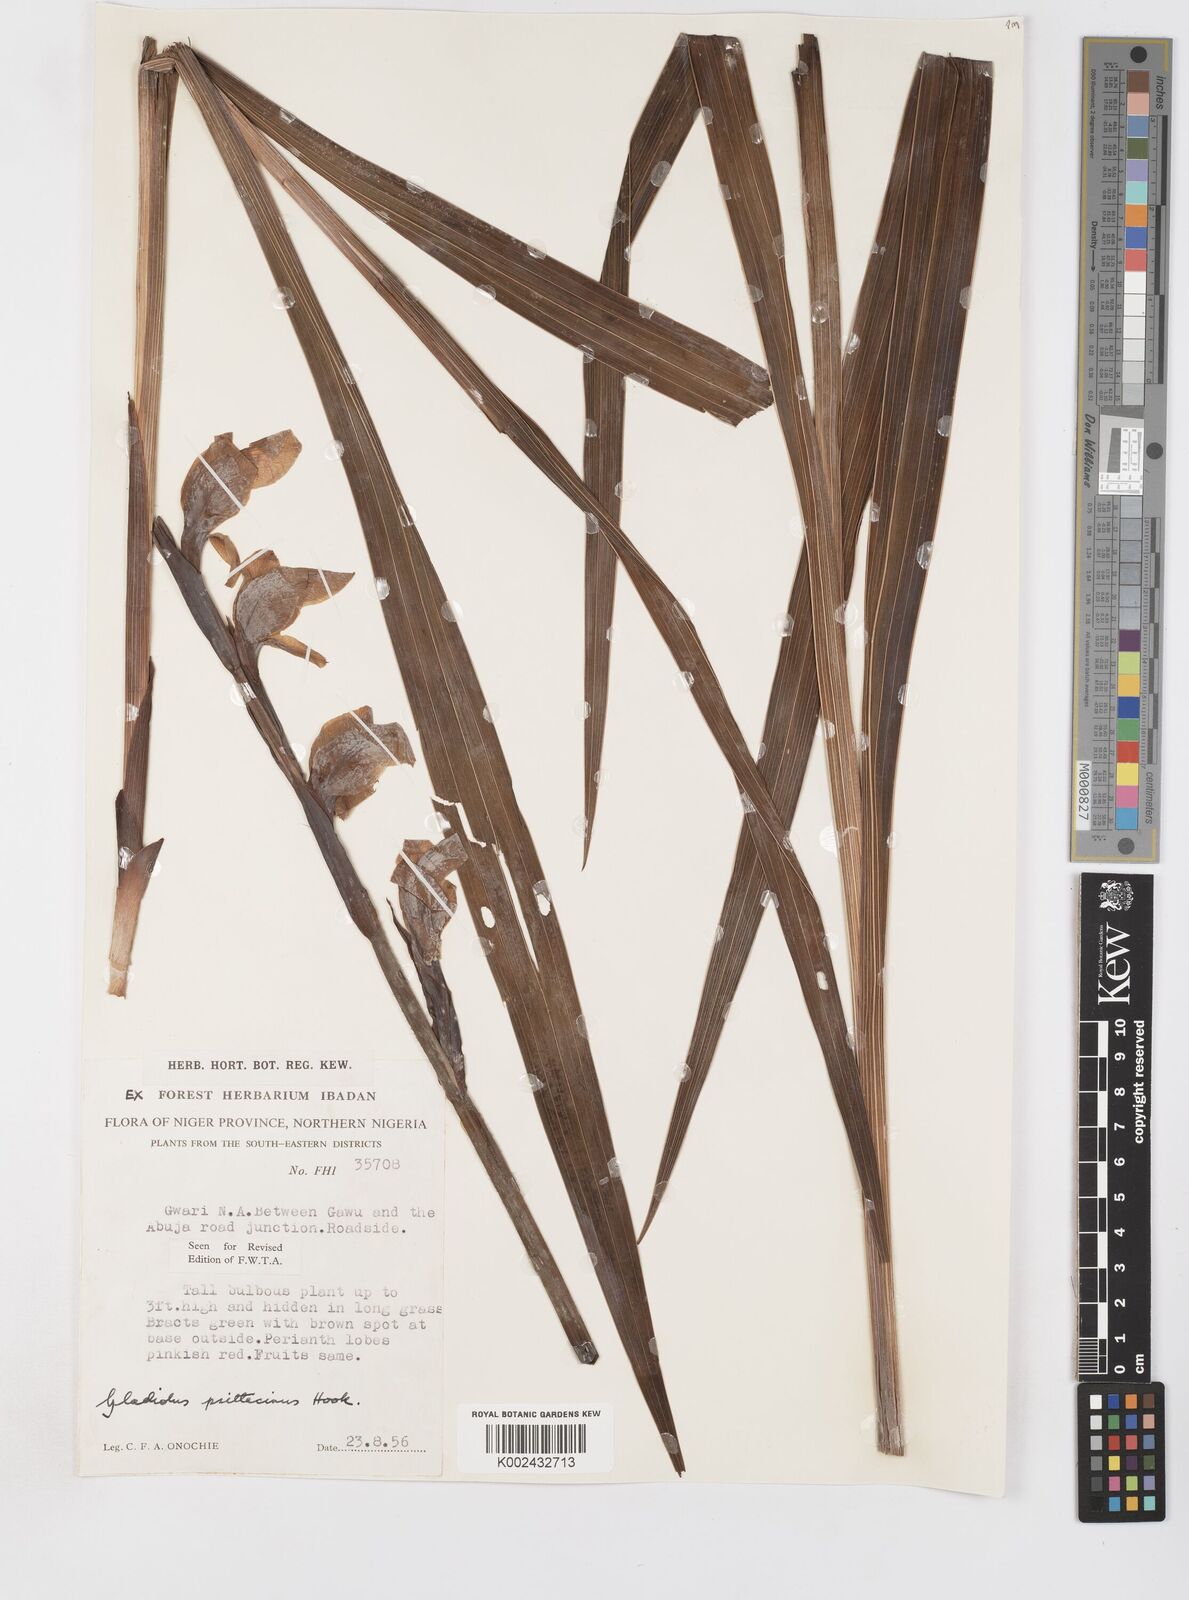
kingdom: Plantae
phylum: Tracheophyta
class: Liliopsida
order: Asparagales
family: Iridaceae
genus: Gladiolus
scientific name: Gladiolus dalenii
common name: Cornflag
